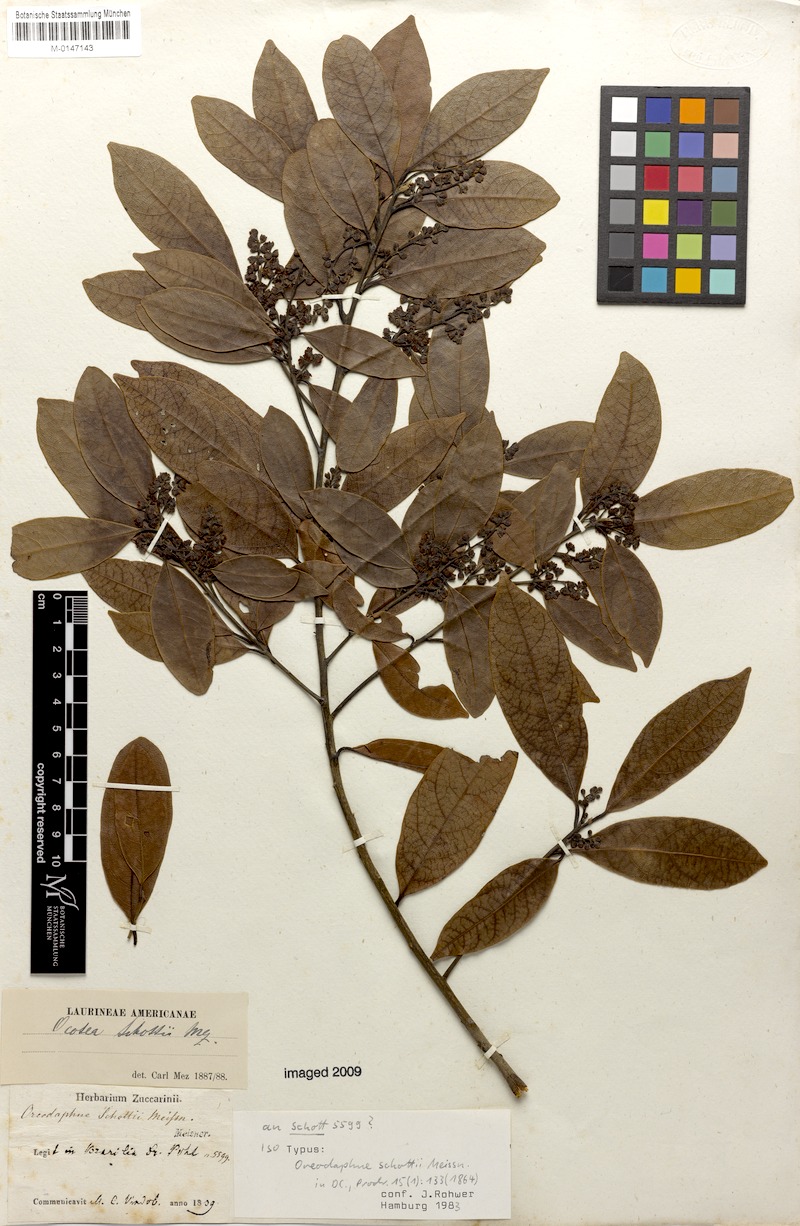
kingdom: Plantae
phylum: Tracheophyta
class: Magnoliopsida
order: Laurales
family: Lauraceae
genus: Ocotea
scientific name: Ocotea lancifolia
